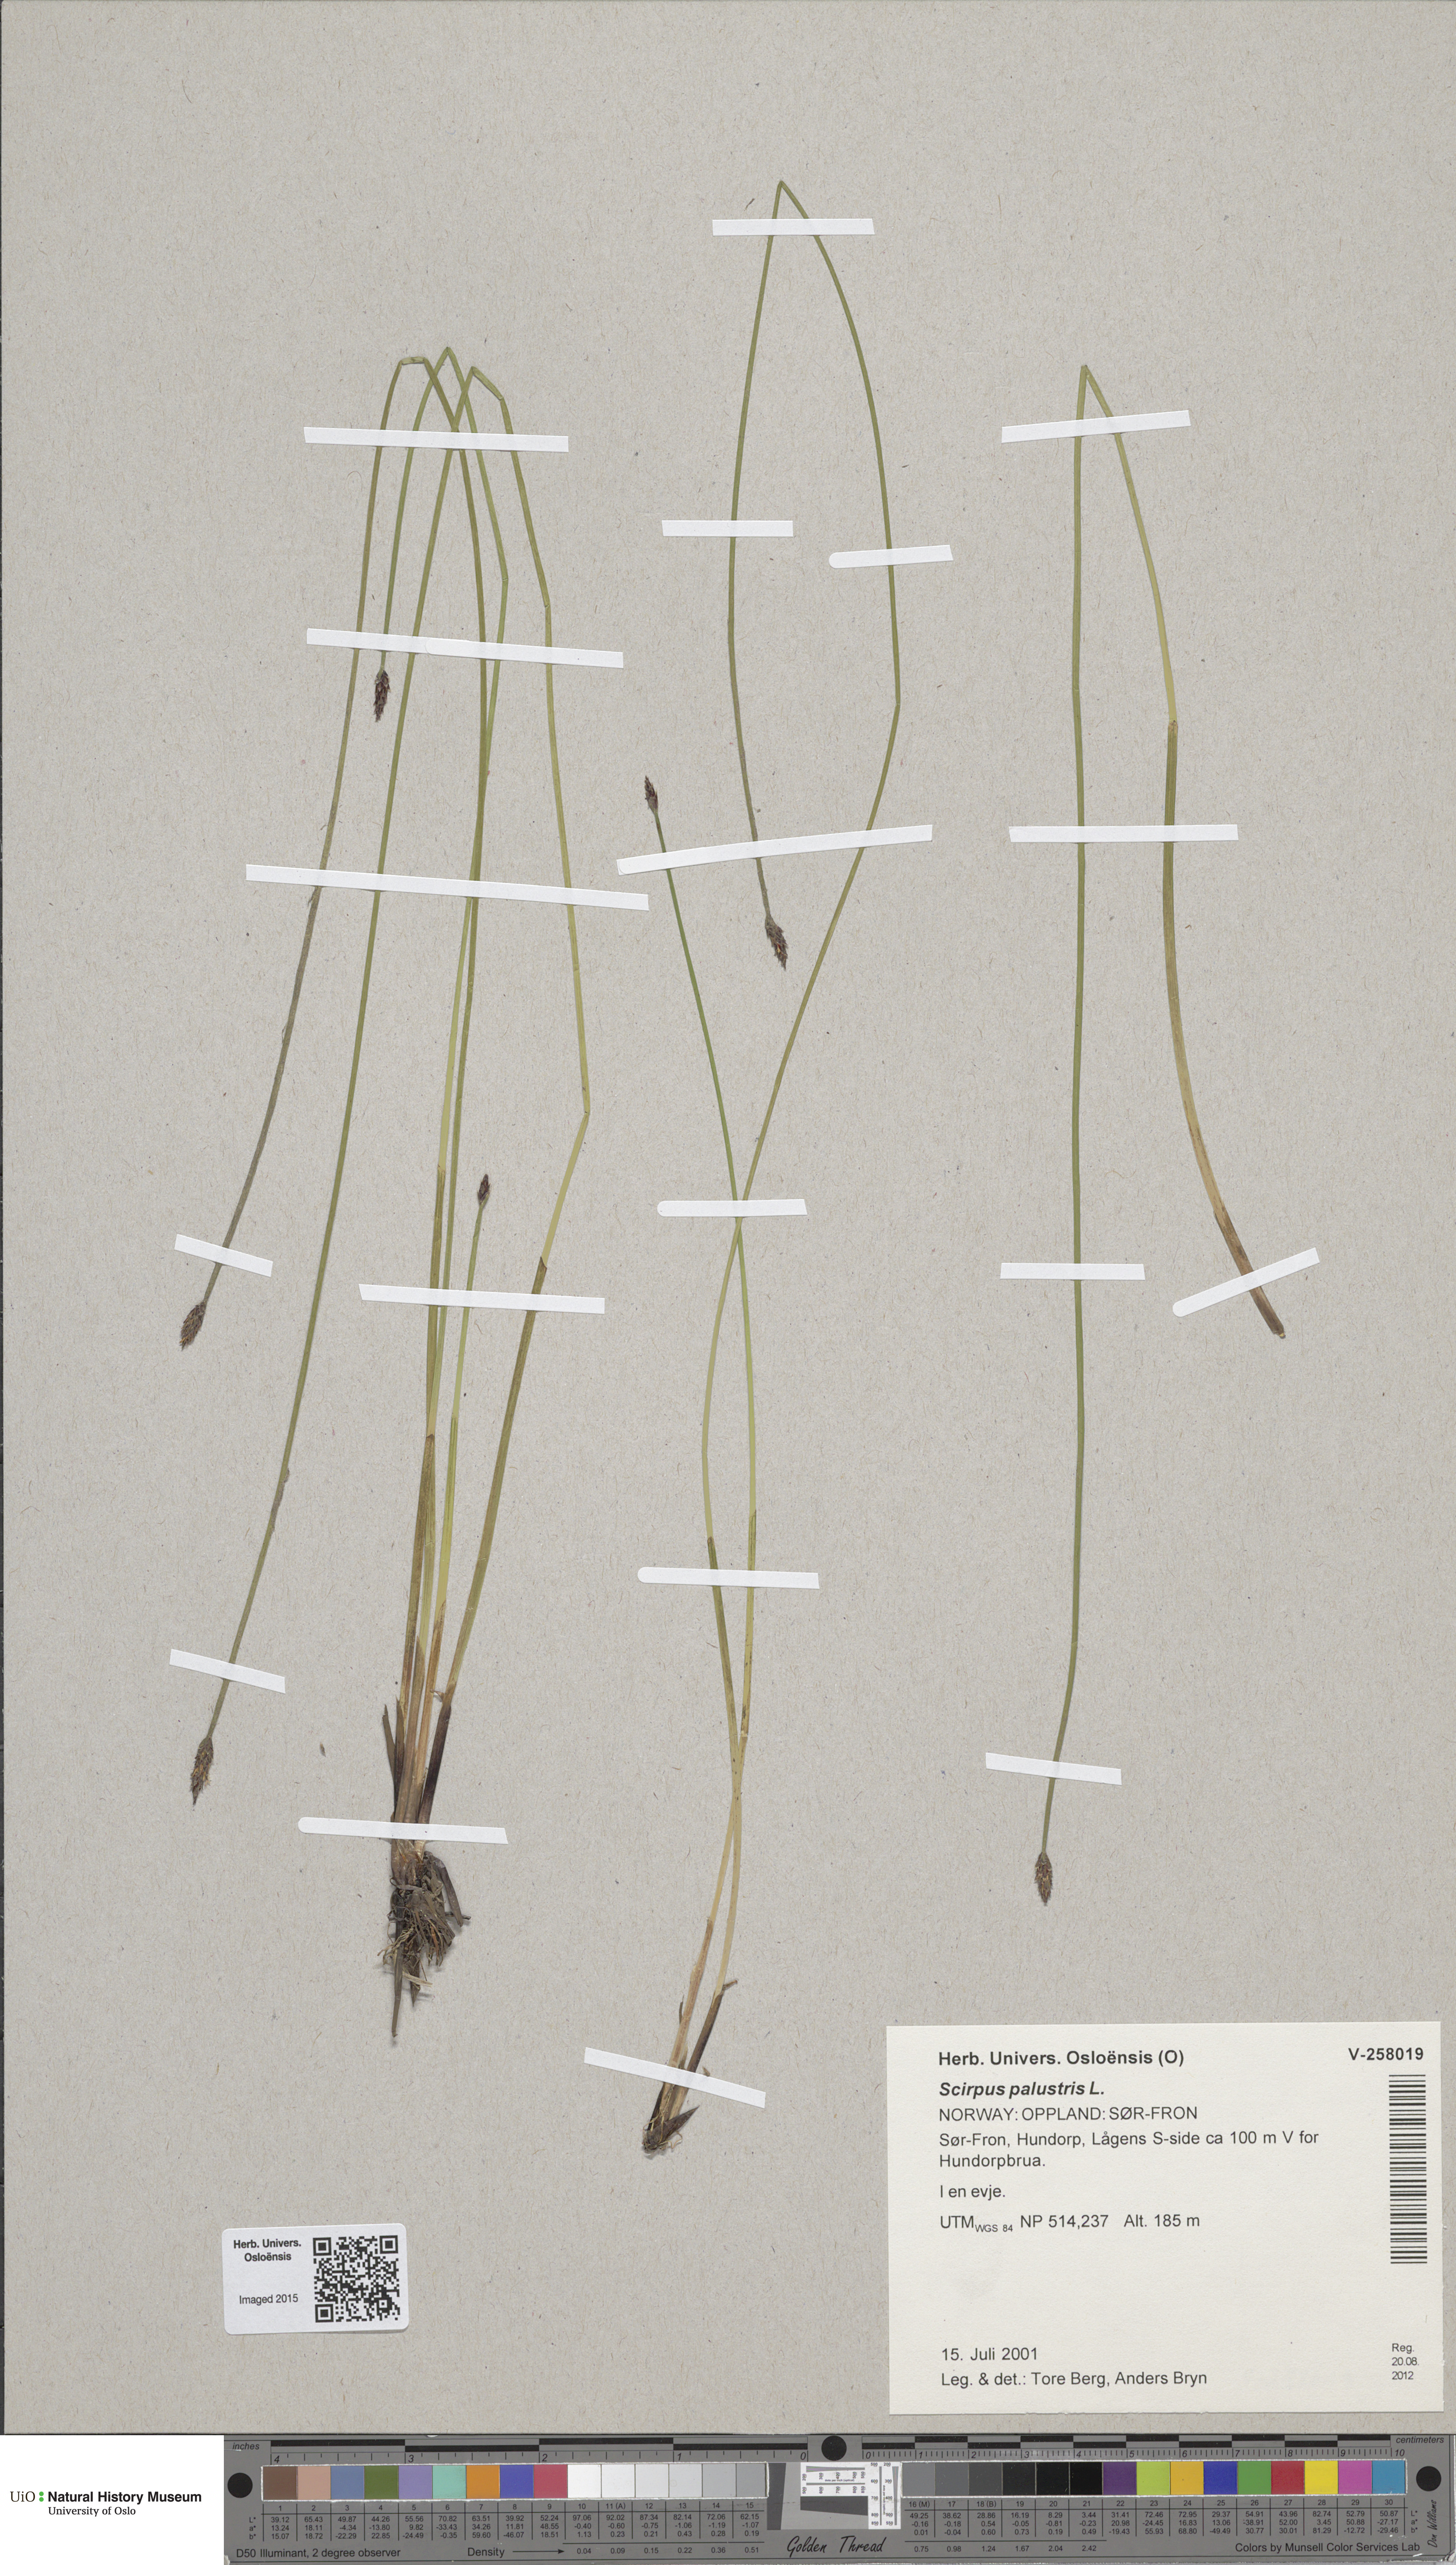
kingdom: Plantae
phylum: Tracheophyta
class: Liliopsida
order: Poales
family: Cyperaceae
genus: Eleocharis
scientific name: Eleocharis palustris
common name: Common spike-rush
